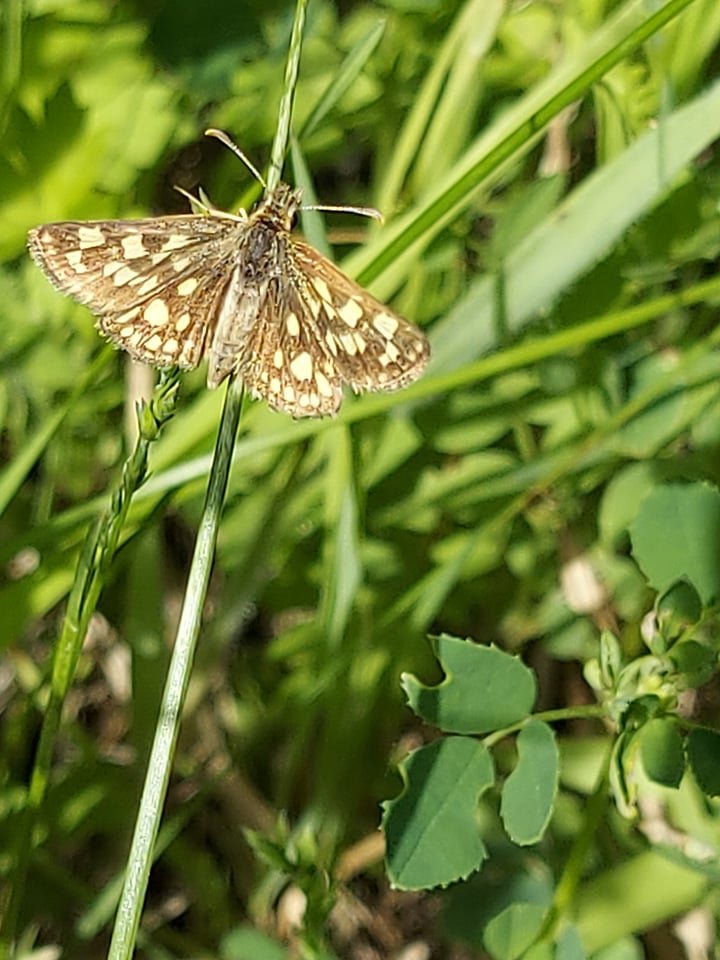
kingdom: Animalia
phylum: Arthropoda
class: Insecta
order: Lepidoptera
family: Hesperiidae
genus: Carterocephalus
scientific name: Carterocephalus palaemon
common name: Chequered Skipper
